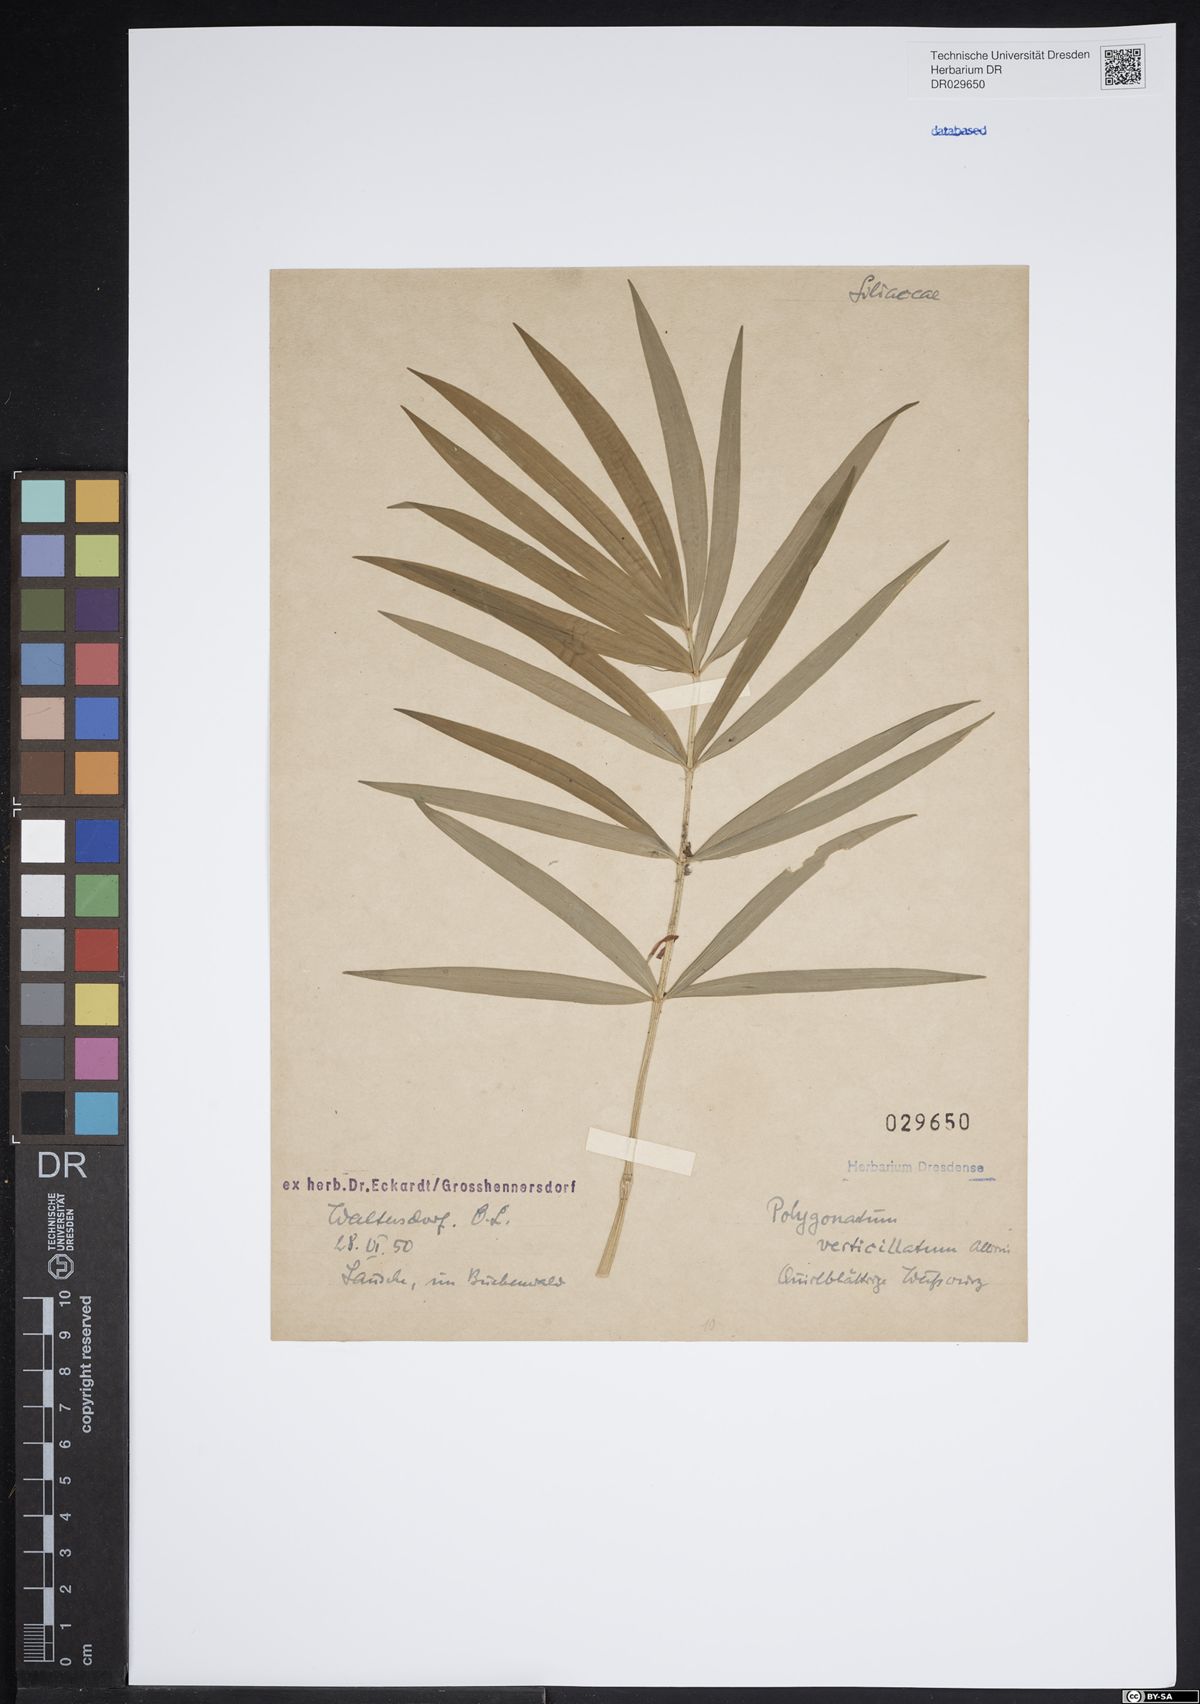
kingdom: Plantae
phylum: Tracheophyta
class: Liliopsida
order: Asparagales
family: Asparagaceae
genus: Polygonatum
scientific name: Polygonatum verticillatum
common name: Whorled solomon's-seal
